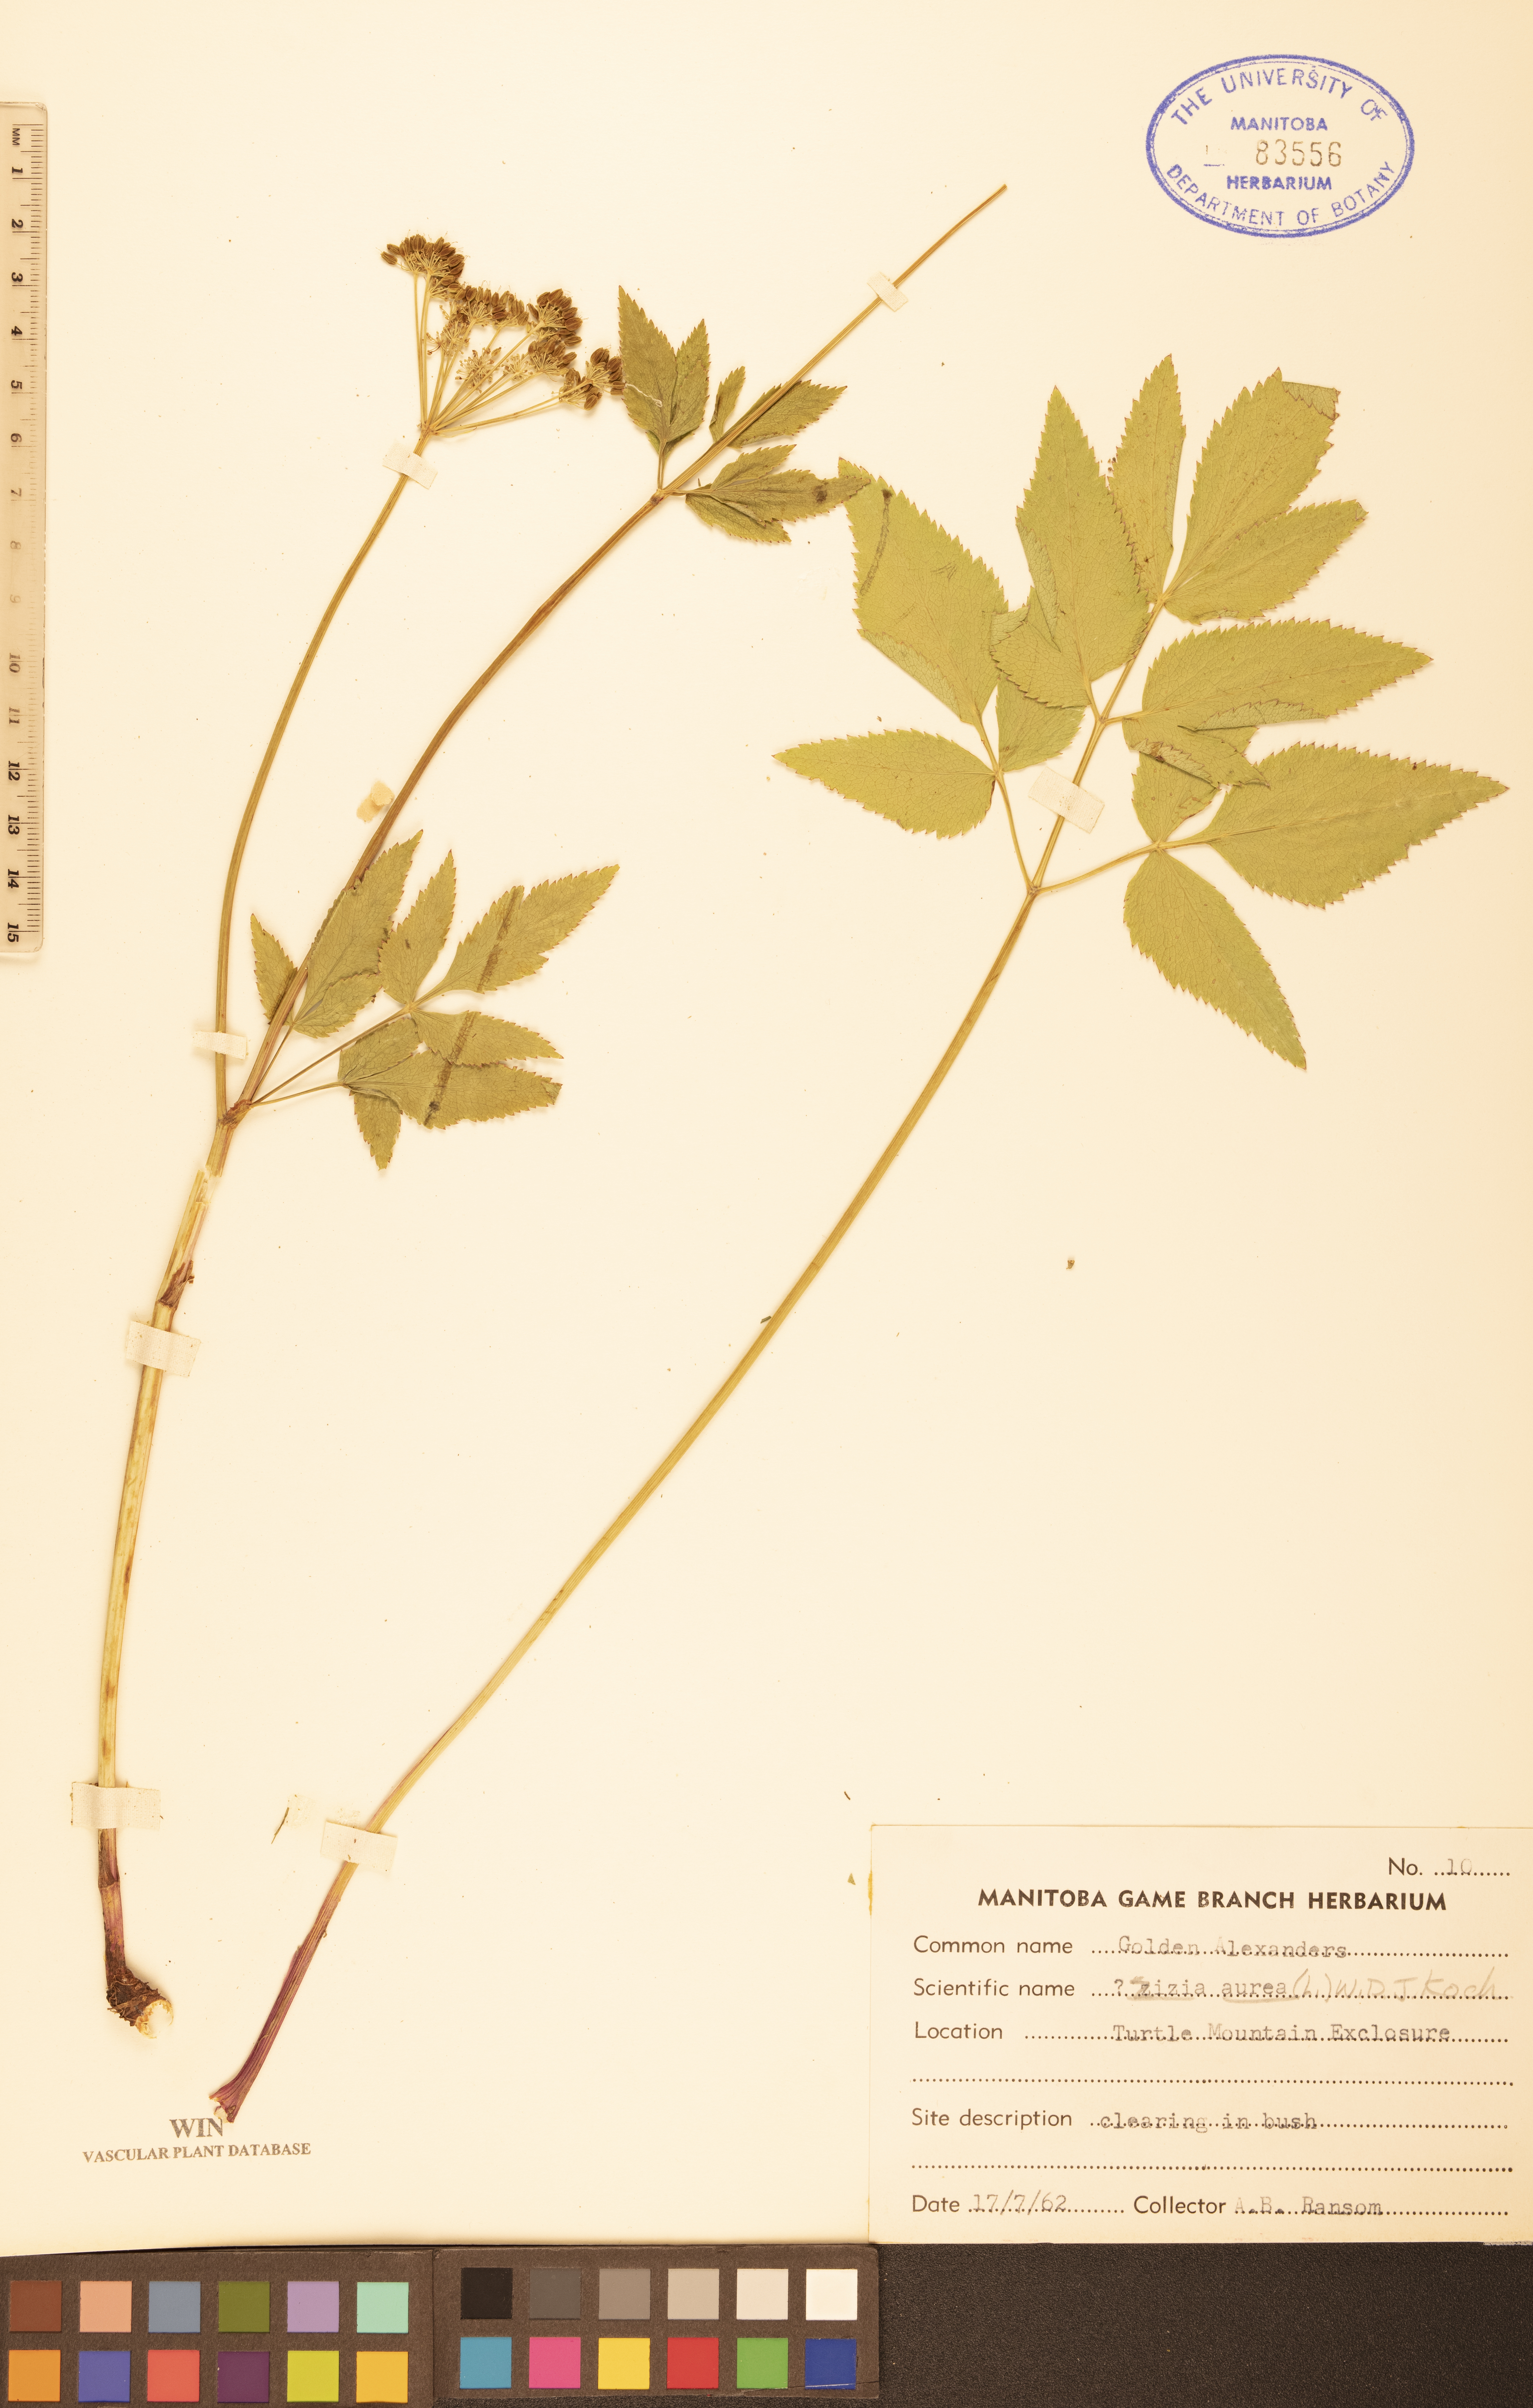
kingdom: Plantae
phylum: Tracheophyta
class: Magnoliopsida
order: Apiales
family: Apiaceae
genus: Zizia
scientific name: Zizia aurea
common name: Golden alexanders
